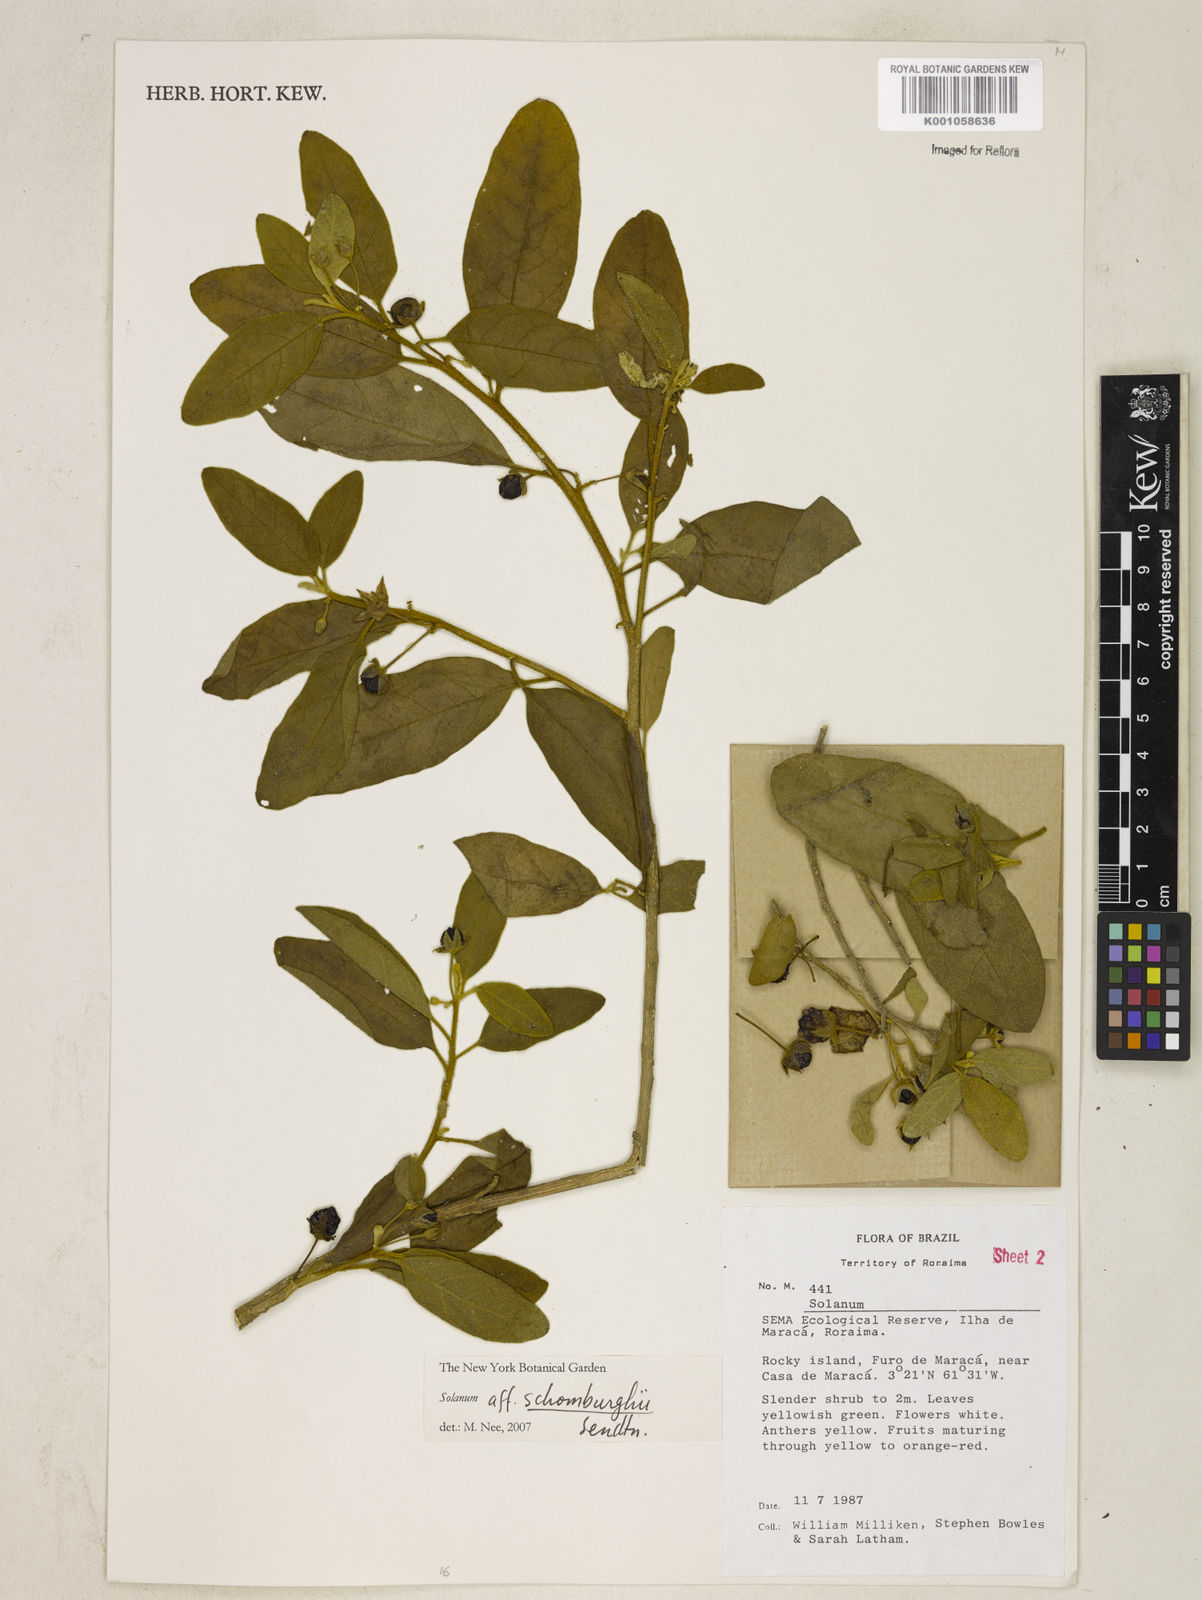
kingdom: Plantae
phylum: Tracheophyta
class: Magnoliopsida
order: Solanales
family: Solanaceae
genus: Solanum
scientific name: Solanum
